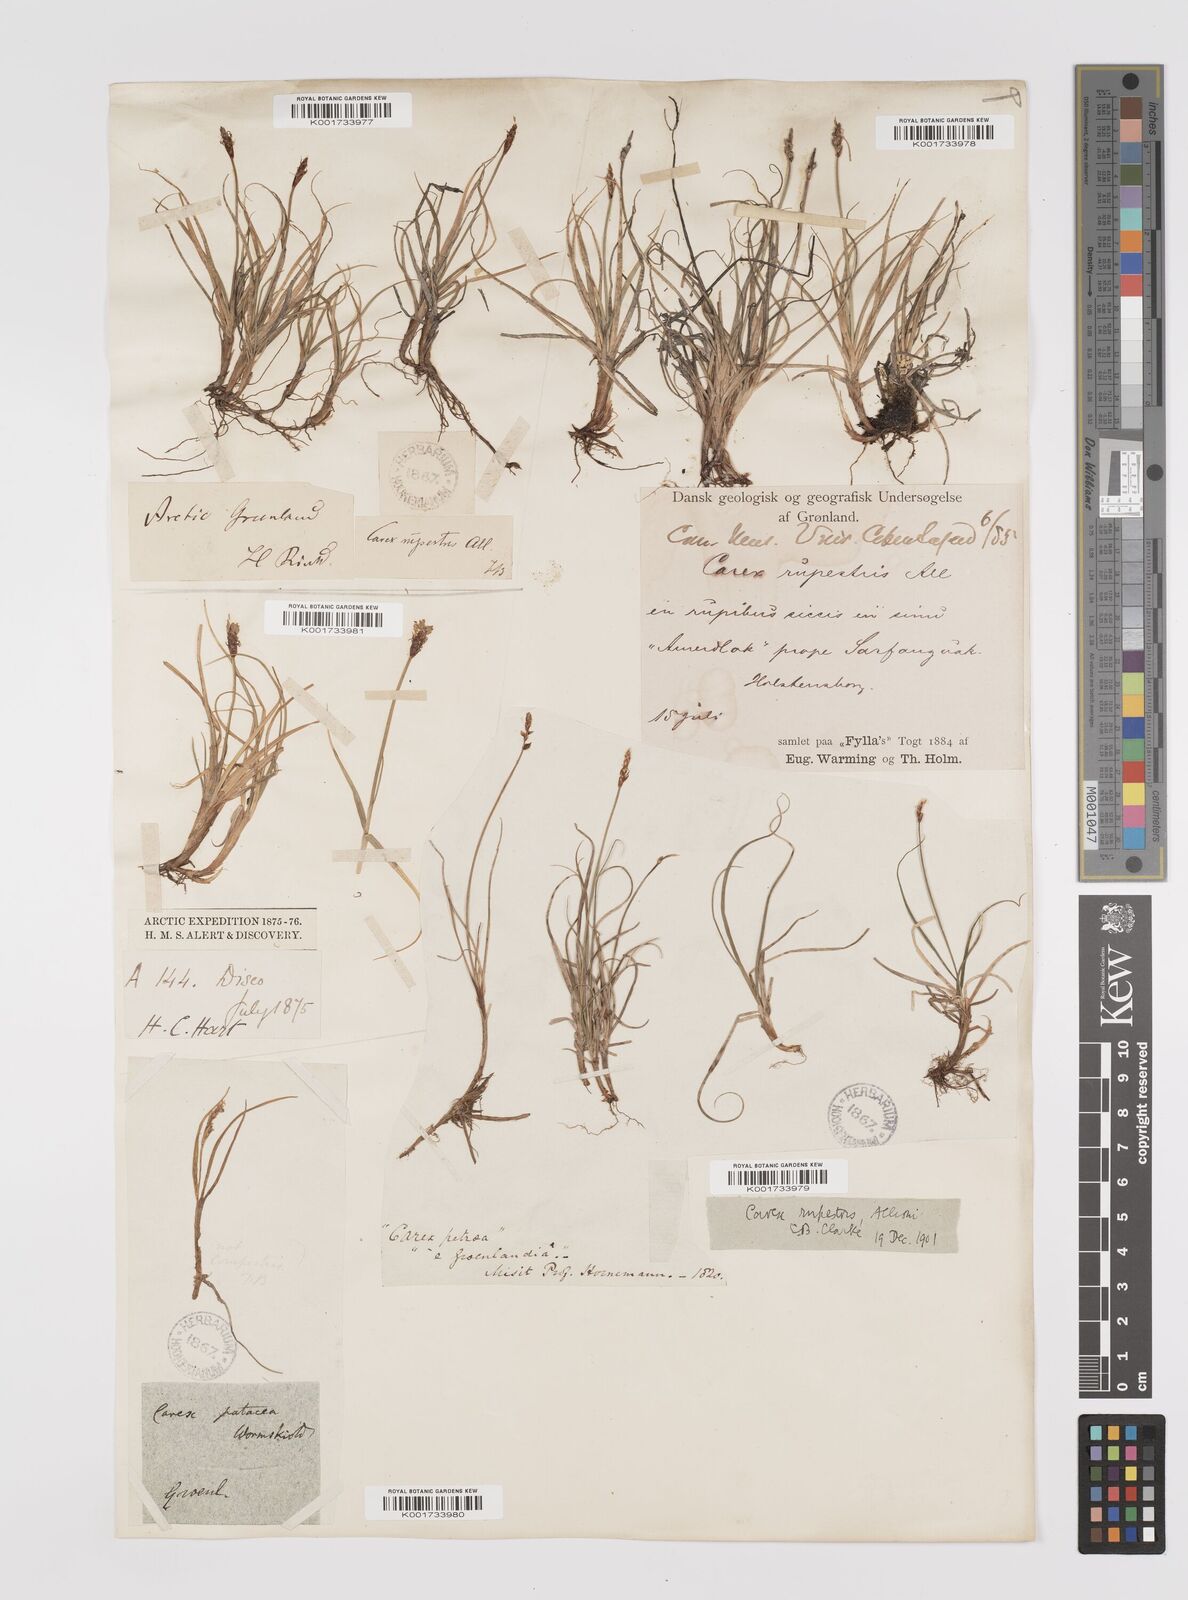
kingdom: Plantae
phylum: Tracheophyta
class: Liliopsida
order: Poales
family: Cyperaceae
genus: Carex
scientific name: Carex rupestris
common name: Rock sedge
